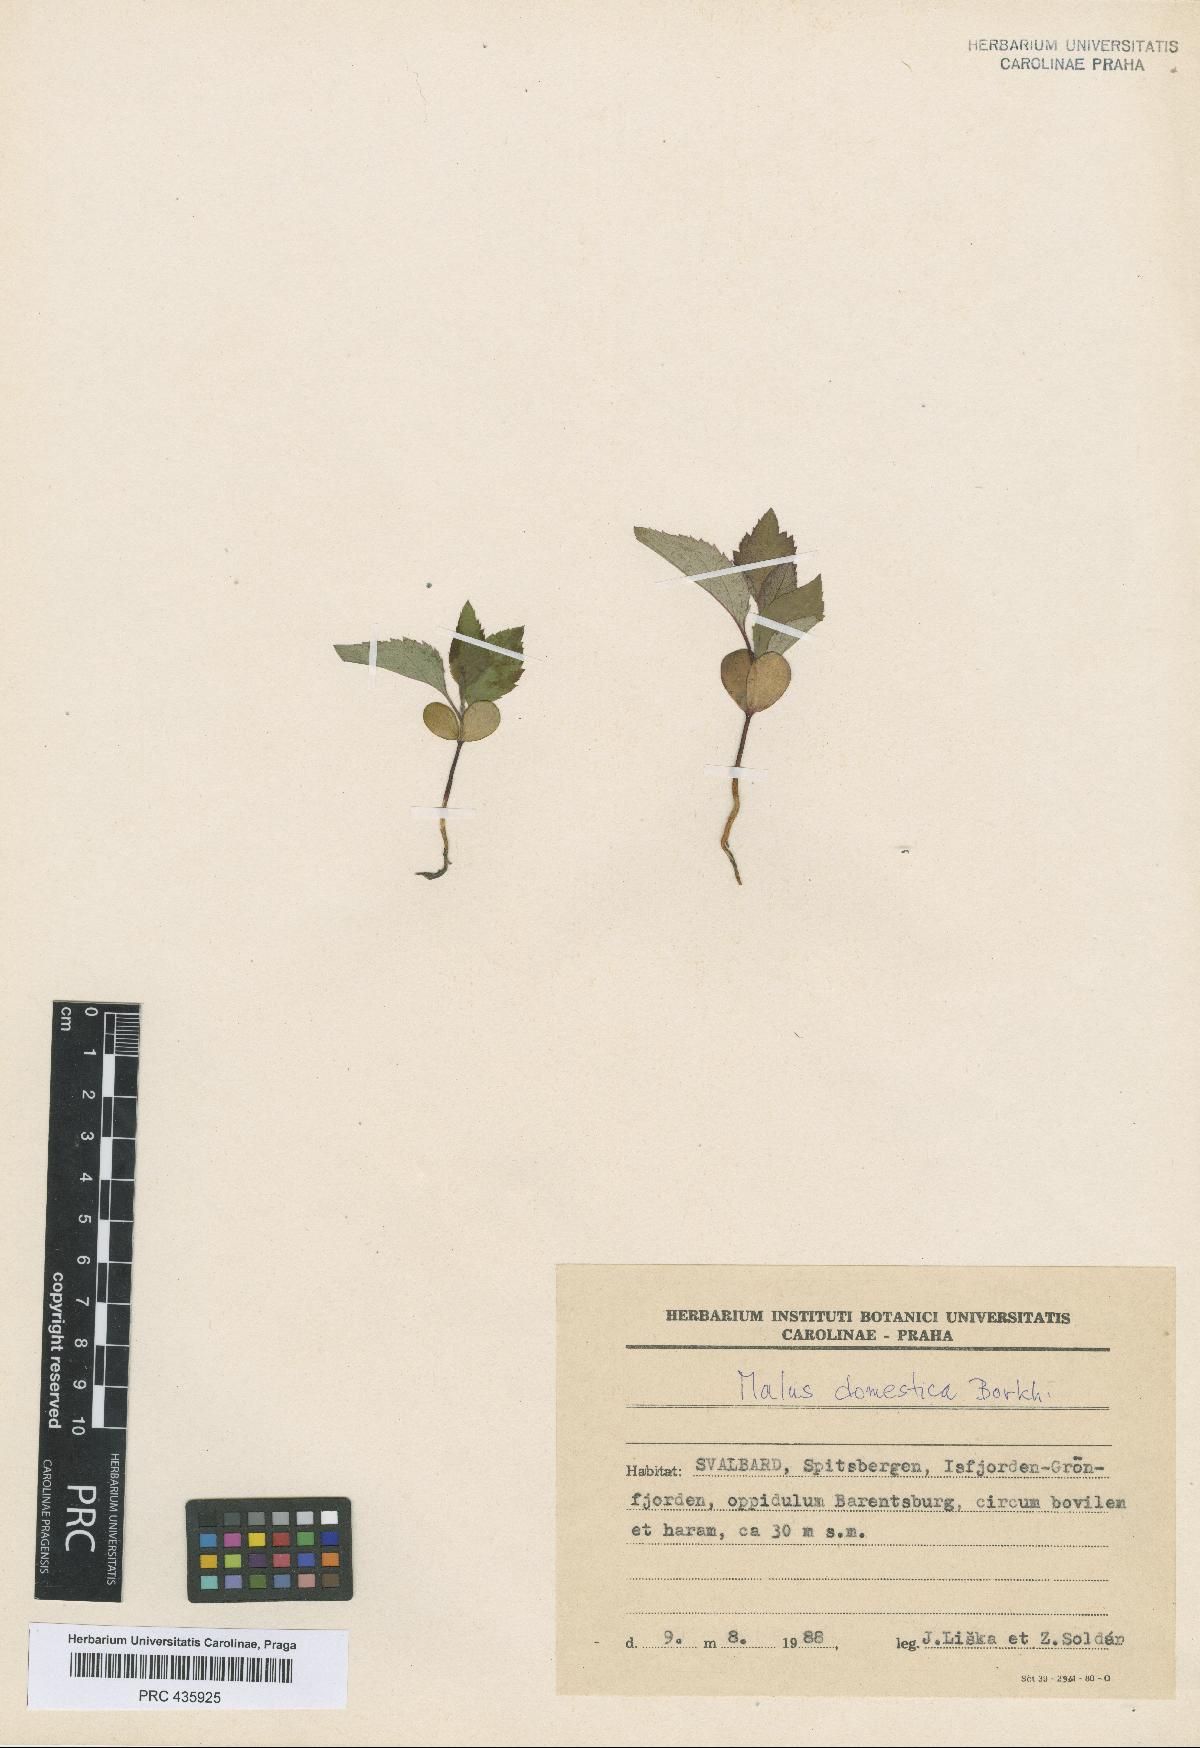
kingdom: Plantae
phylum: Tracheophyta
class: Magnoliopsida
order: Rosales
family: Rosaceae
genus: Malus
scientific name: Malus domestica
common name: Apple
